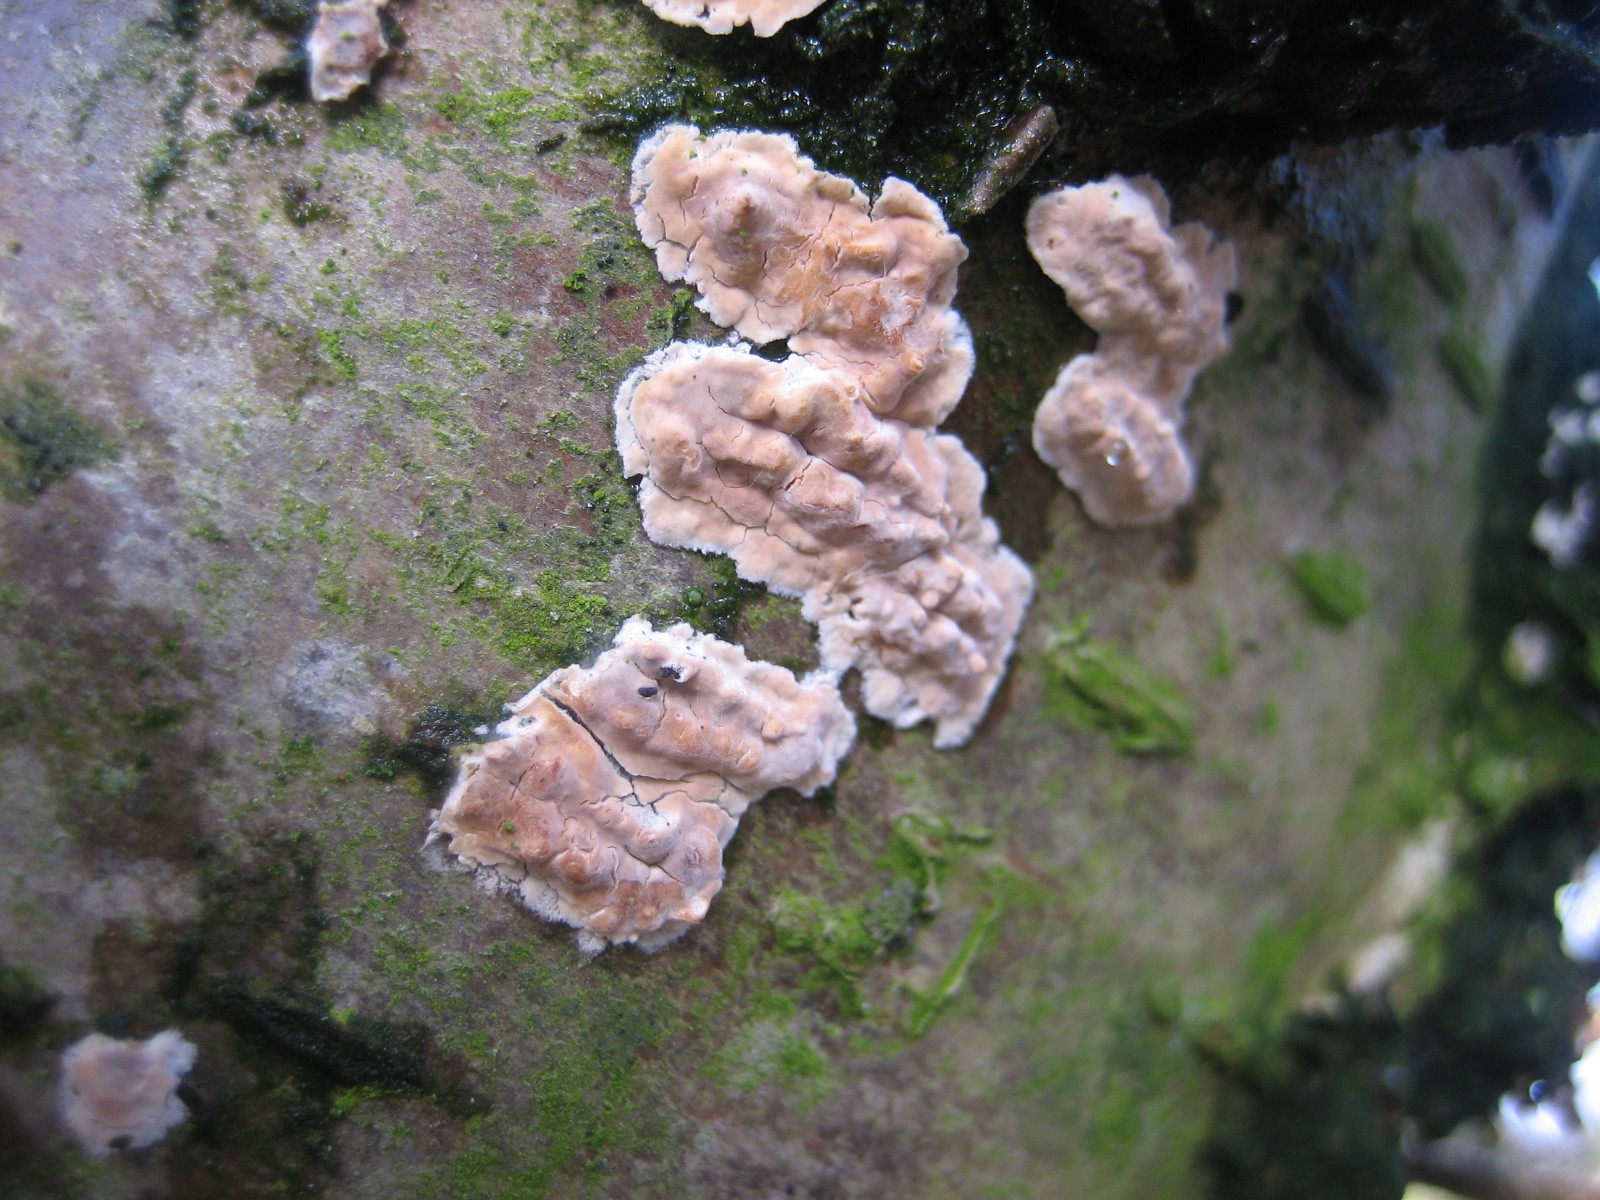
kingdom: Fungi
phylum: Basidiomycota
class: Agaricomycetes
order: Agaricales
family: Physalacriaceae
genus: Cylindrobasidium
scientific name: Cylindrobasidium evolvens
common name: sprækkehinde
